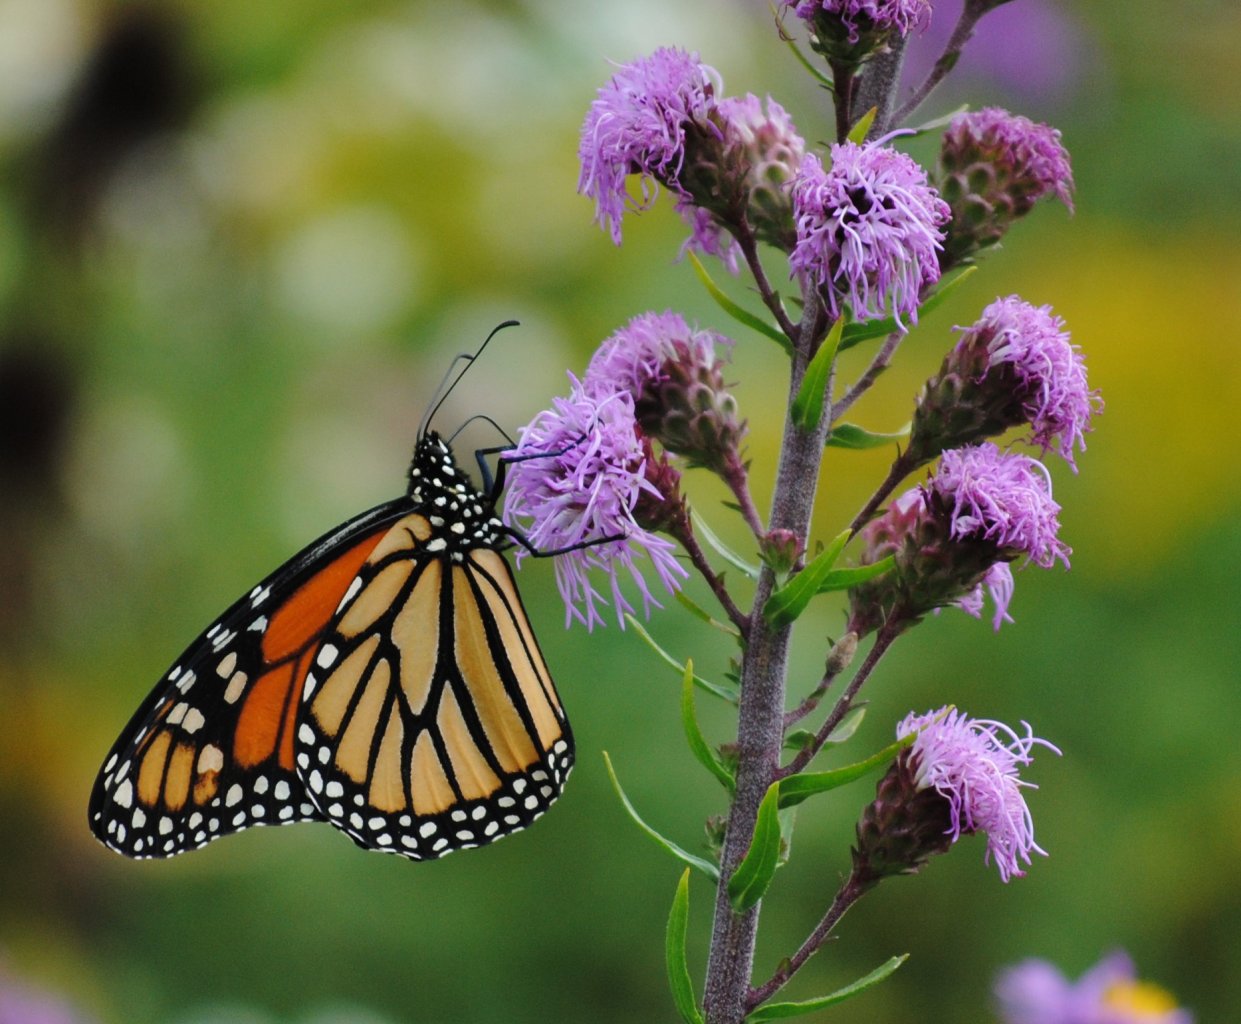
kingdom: Animalia
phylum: Arthropoda
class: Insecta
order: Lepidoptera
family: Nymphalidae
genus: Danaus
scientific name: Danaus plexippus
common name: Monarch
